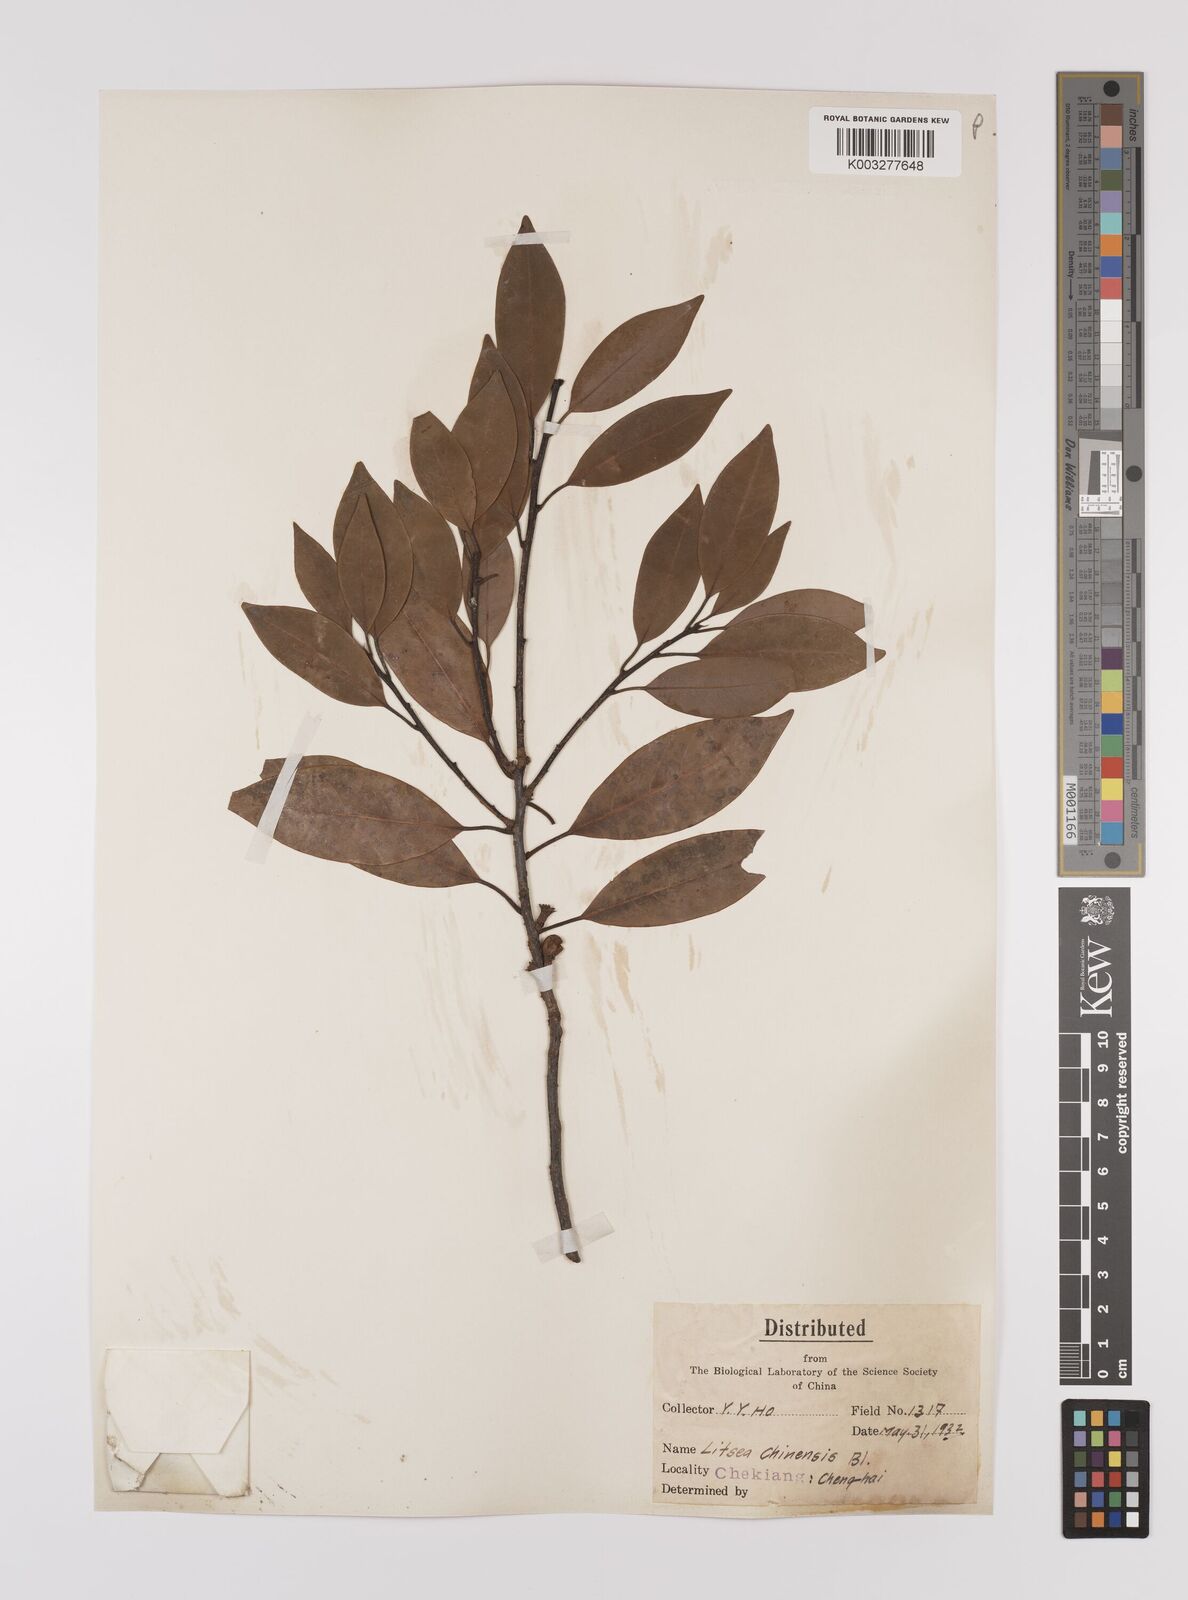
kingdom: Plantae
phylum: Tracheophyta
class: Magnoliopsida
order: Laurales
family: Lauraceae
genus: Litsea
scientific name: Litsea rotundifolia
